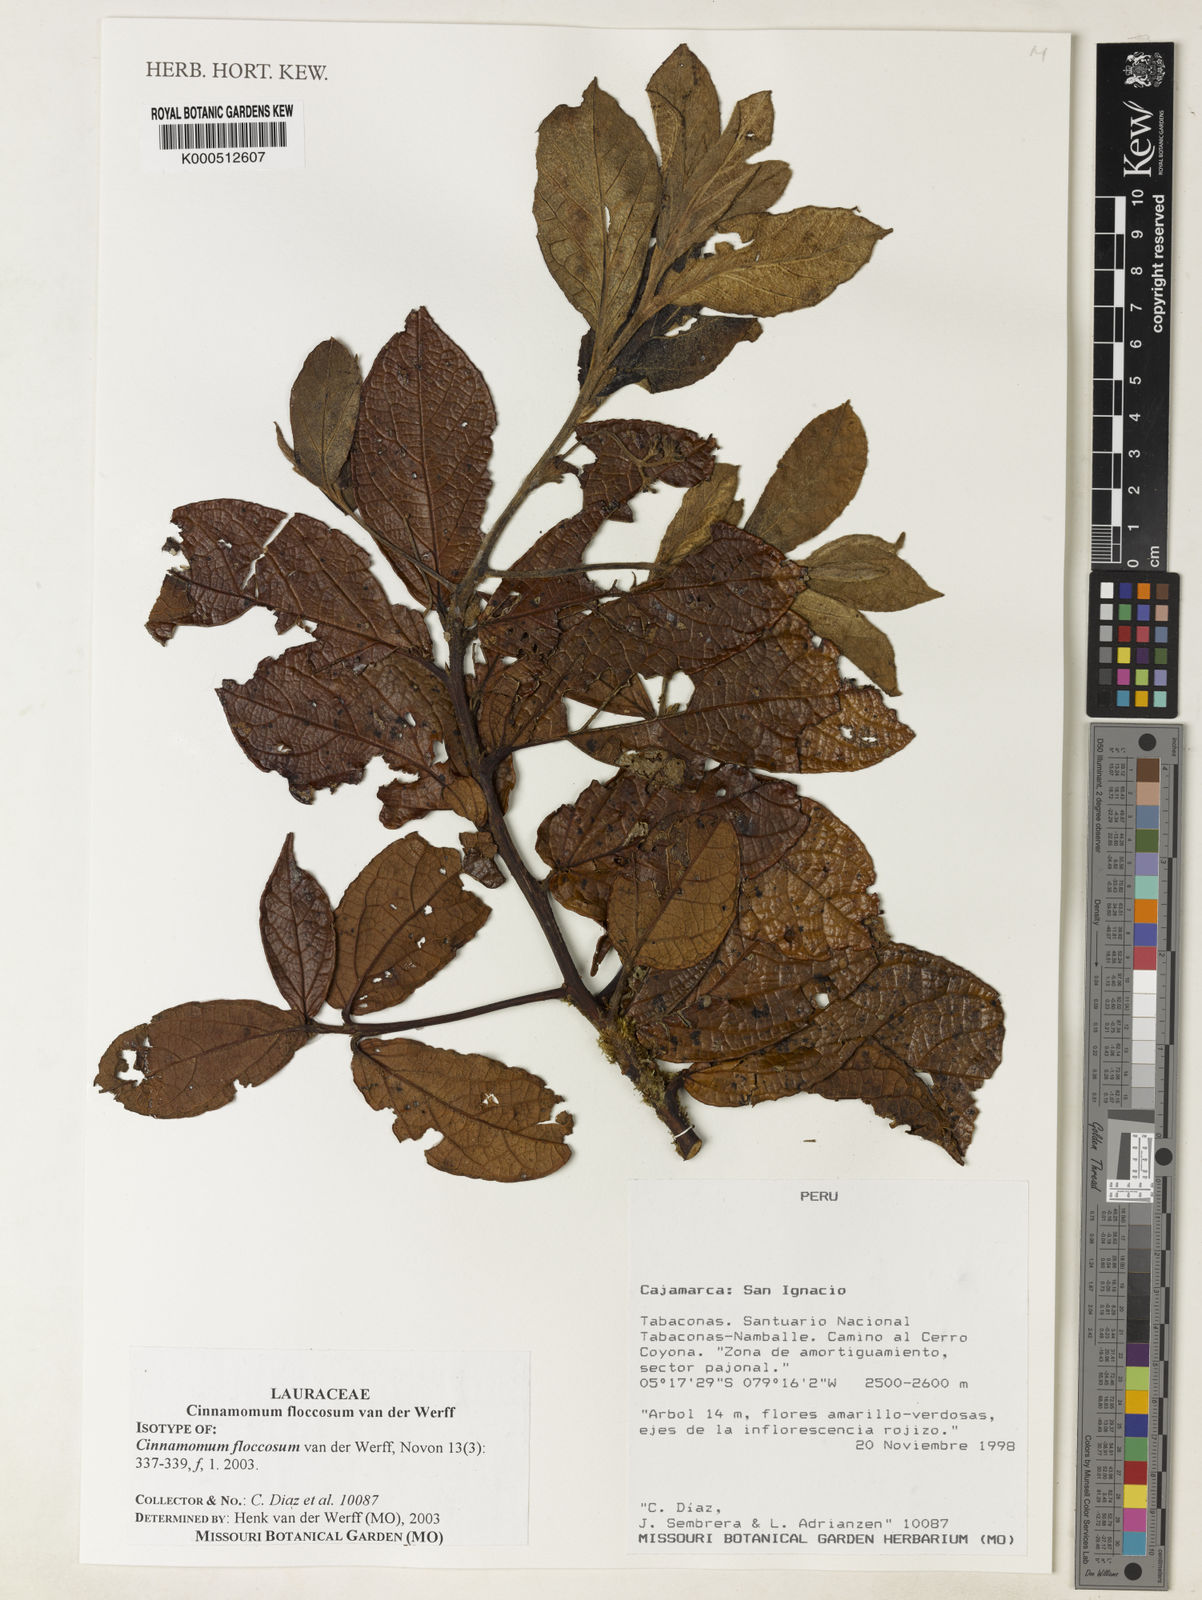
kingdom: Plantae
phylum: Tracheophyta
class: Magnoliopsida
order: Laurales
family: Lauraceae
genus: Aiouea
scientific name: Aiouea floccosa
